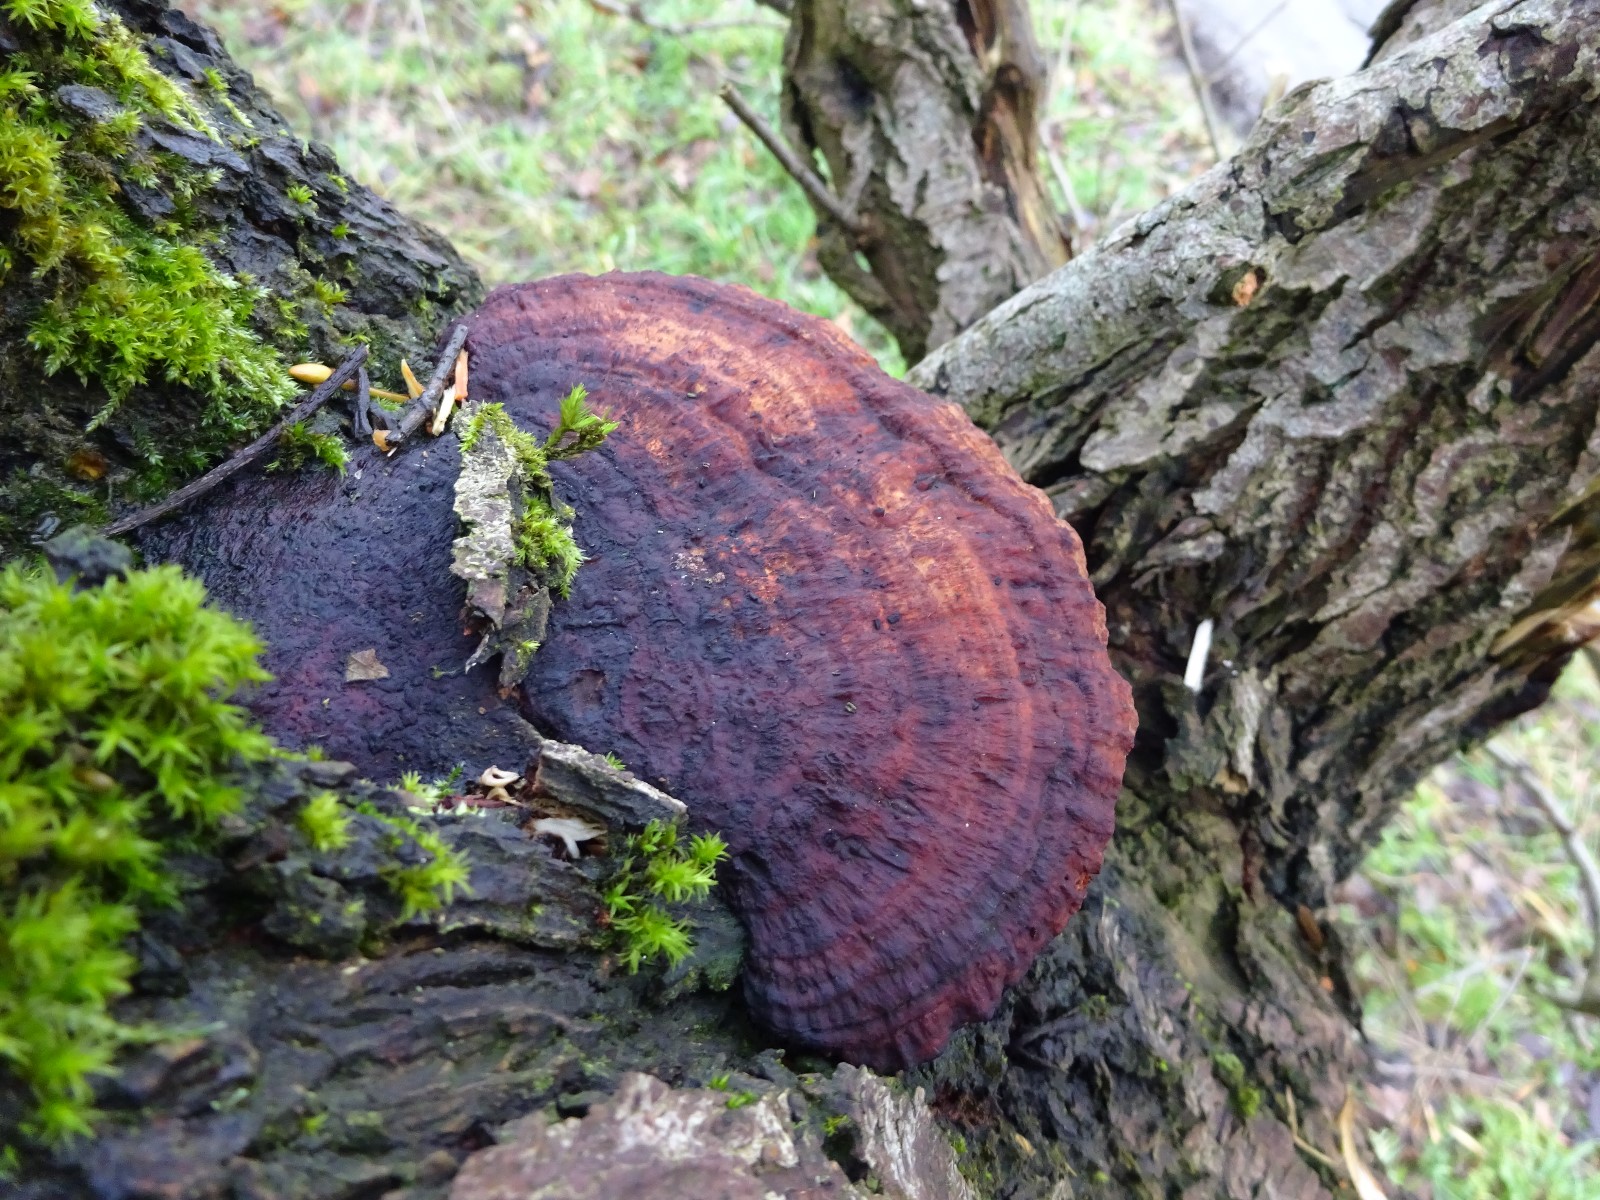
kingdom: Fungi
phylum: Basidiomycota
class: Agaricomycetes
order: Polyporales
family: Polyporaceae
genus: Daedaleopsis
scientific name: Daedaleopsis confragosa
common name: rødmende læderporesvamp
